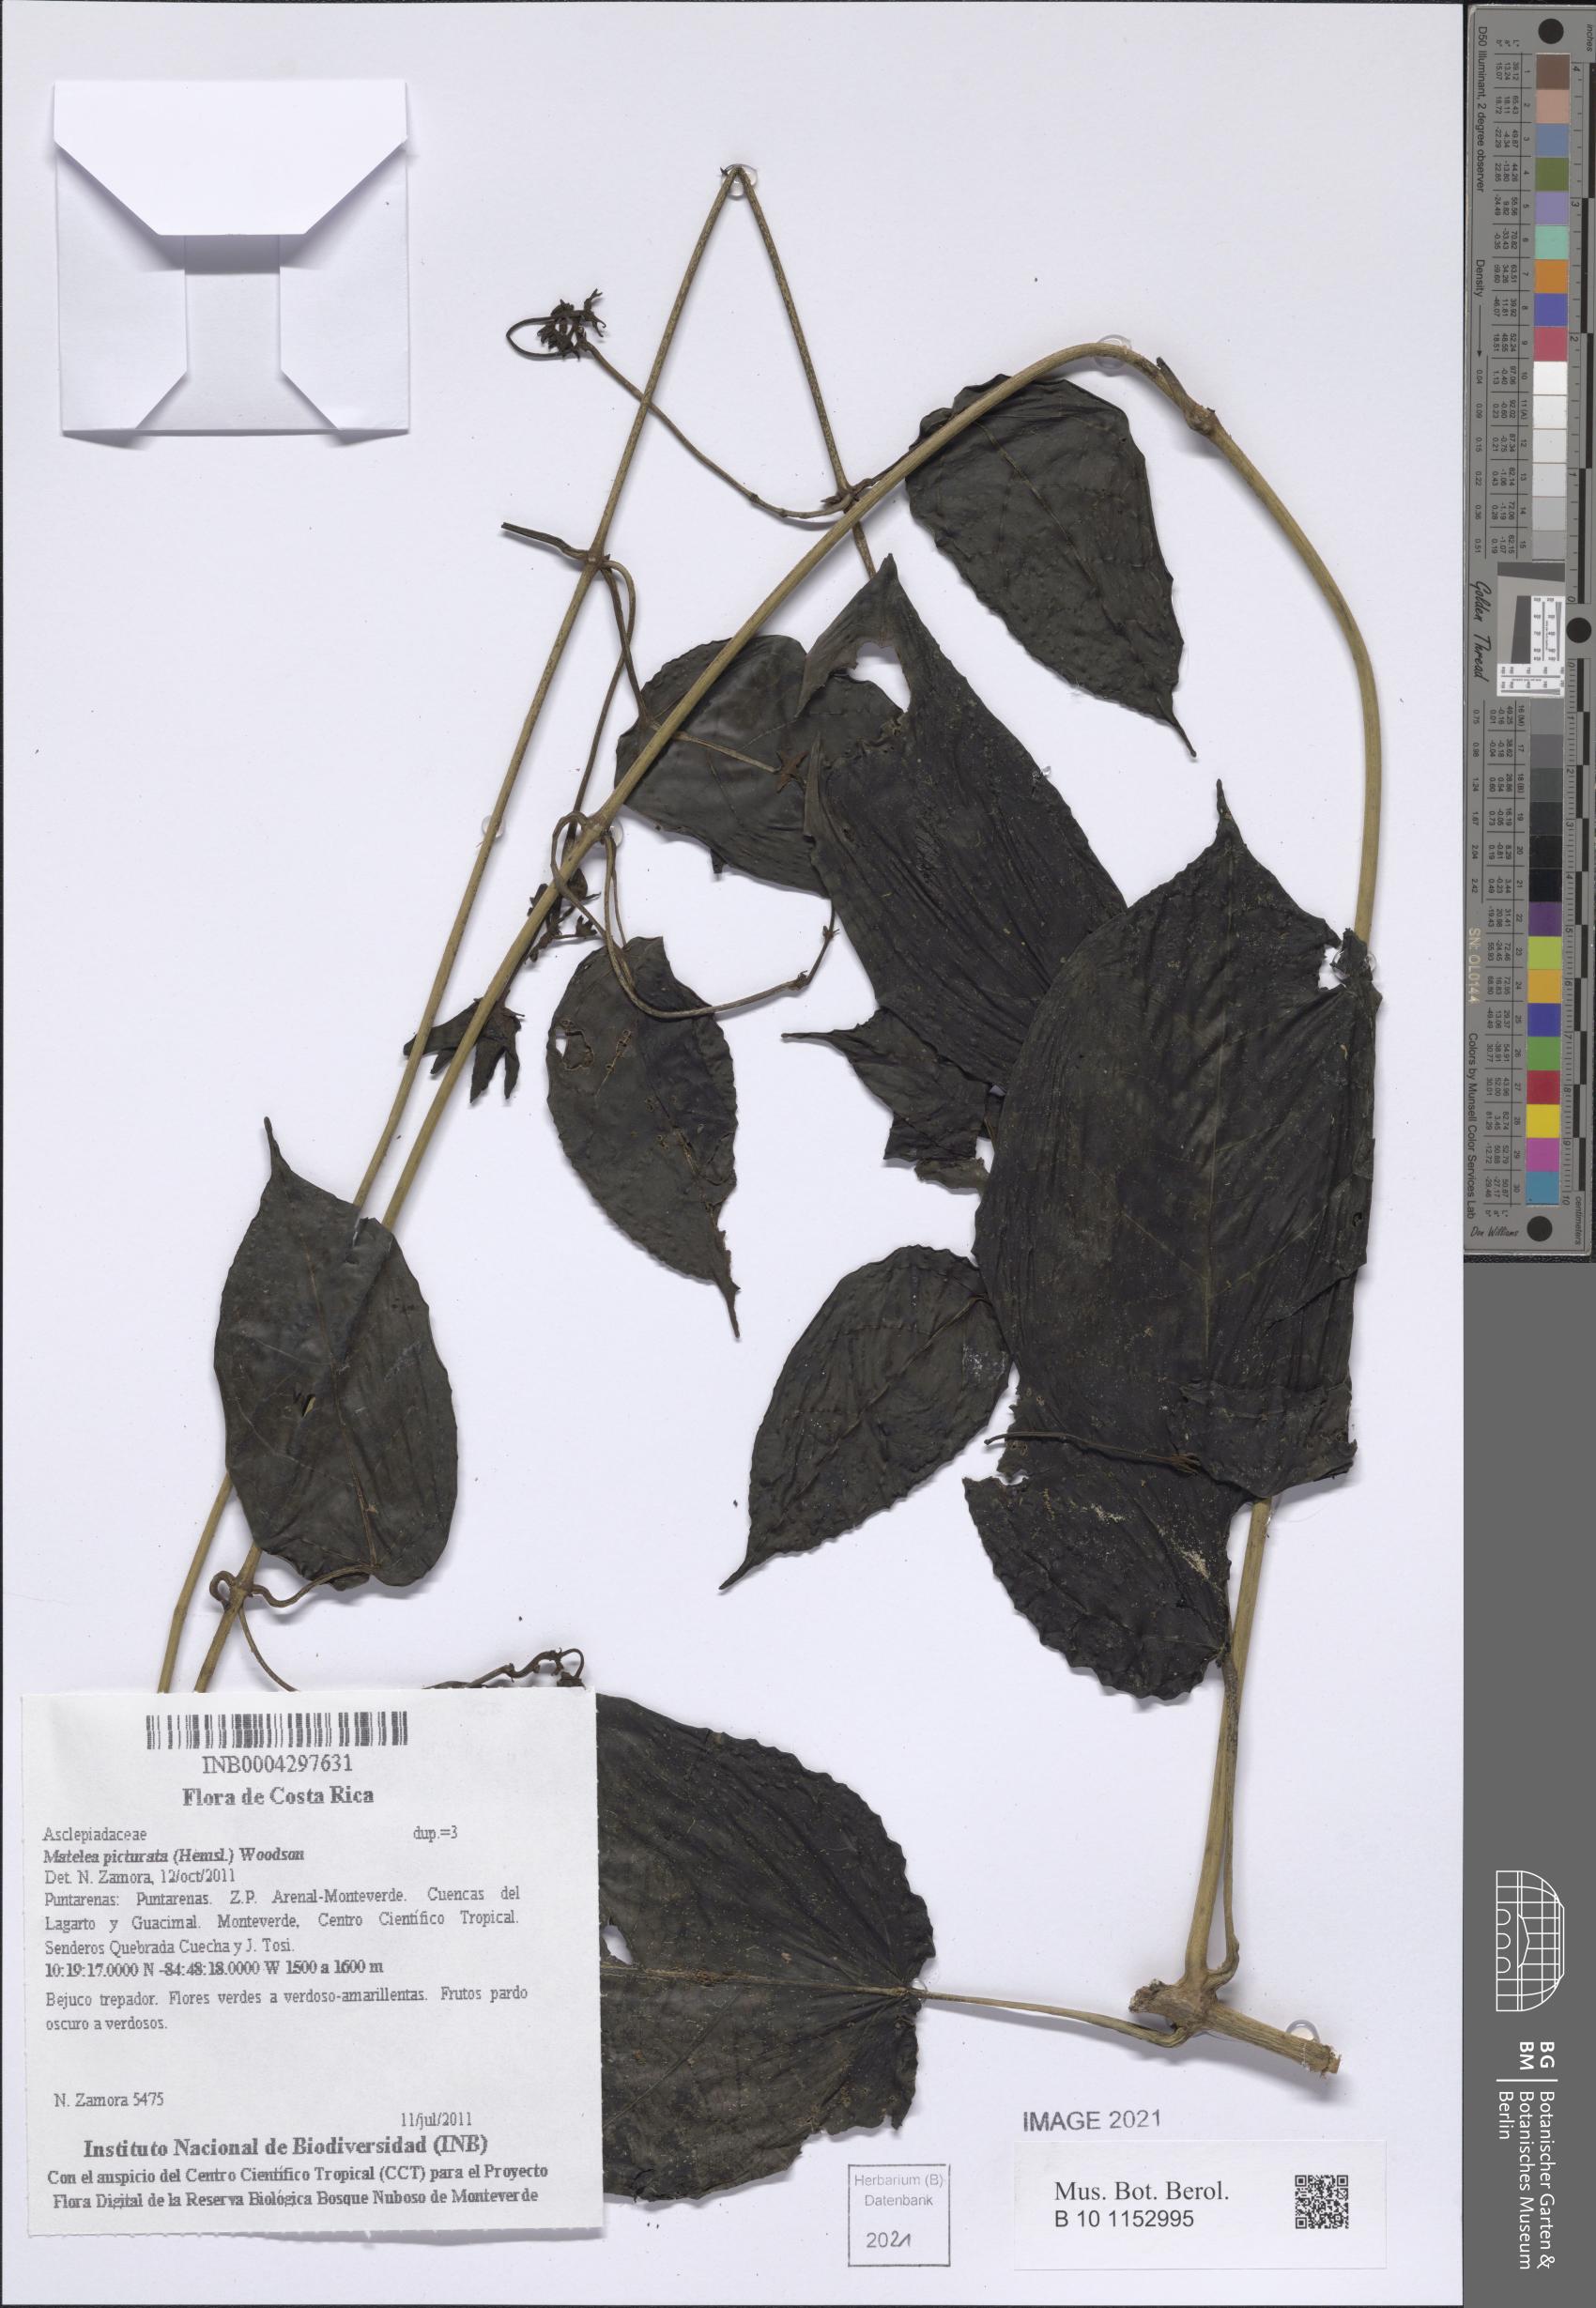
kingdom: Plantae
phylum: Tracheophyta
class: Magnoliopsida
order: Gentianales
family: Apocynaceae
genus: Matelea
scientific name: Matelea tinctoria
